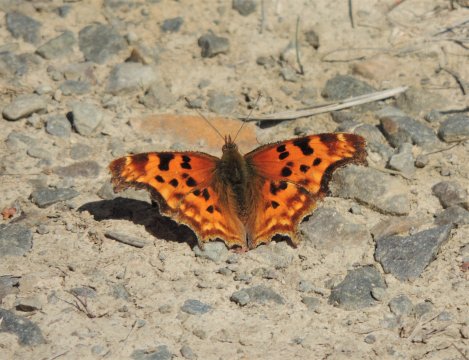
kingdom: Animalia
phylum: Arthropoda
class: Insecta
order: Lepidoptera
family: Nymphalidae
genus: Polygonia
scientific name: Polygonia satyrus
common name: Satyr Comma
